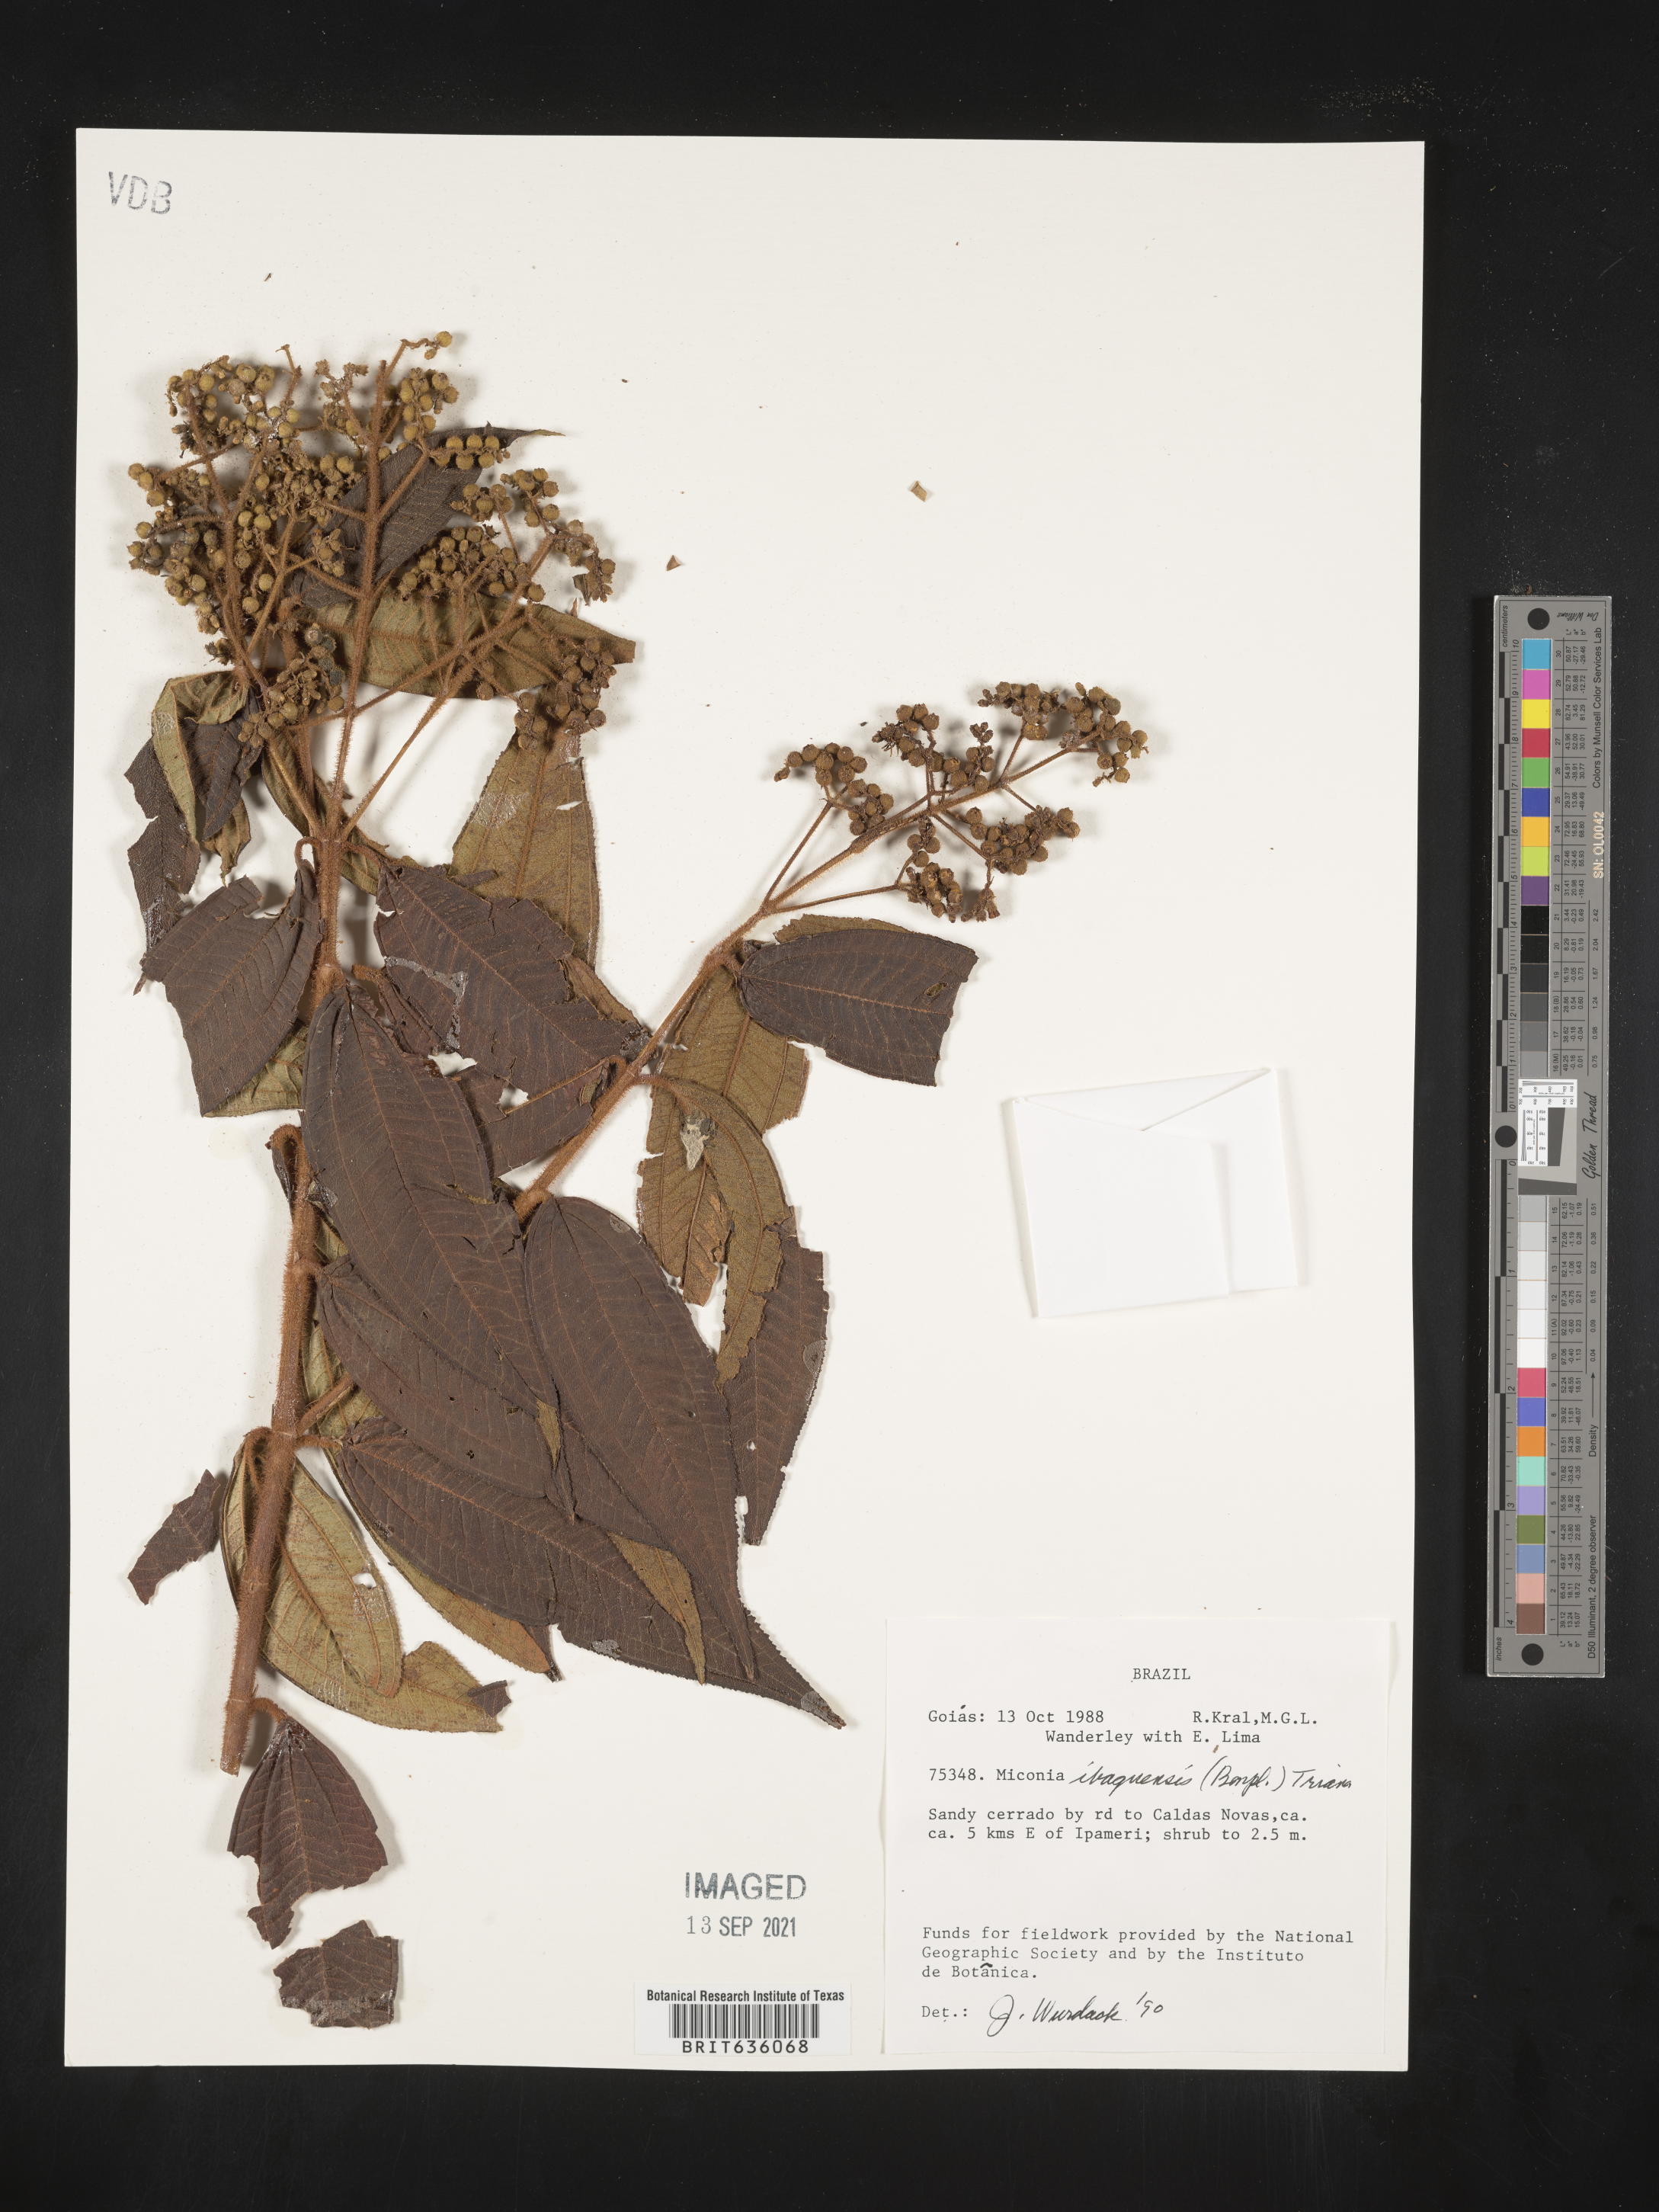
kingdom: Plantae
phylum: Tracheophyta
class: Magnoliopsida
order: Myrtales
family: Melastomataceae
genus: Miconia
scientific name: Miconia
